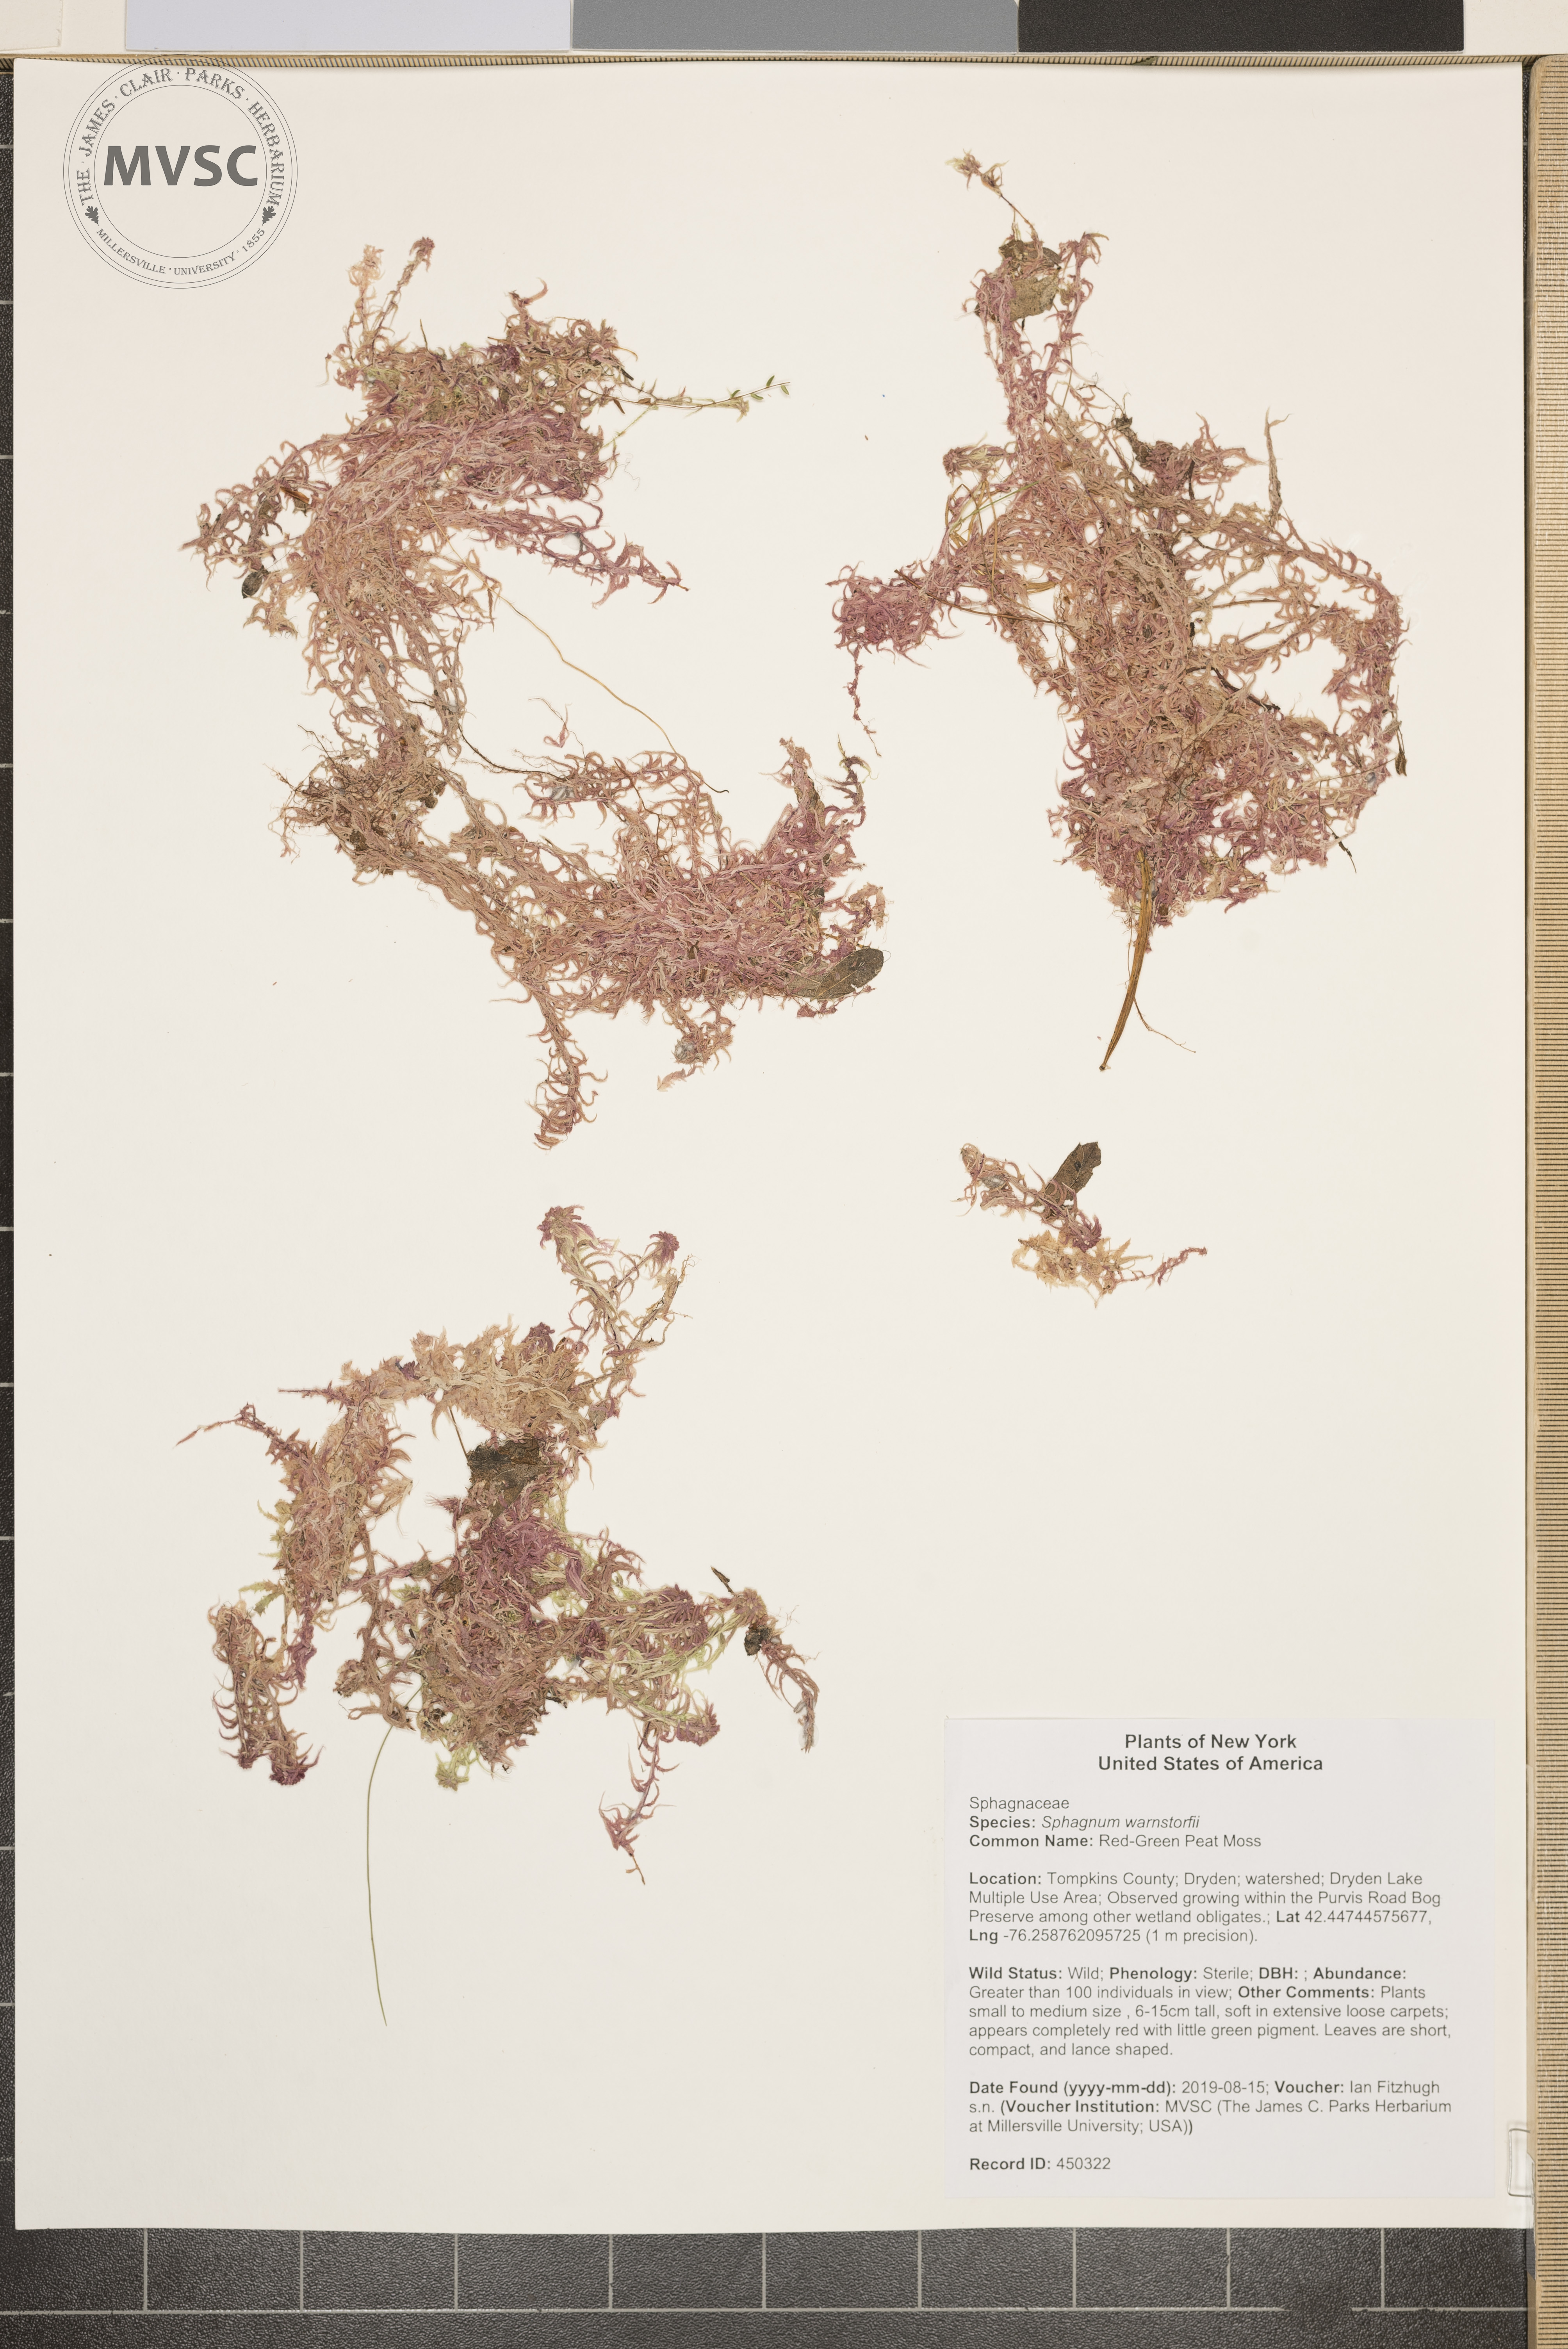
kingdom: Plantae
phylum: Bryophyta
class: Sphagnopsida
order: Sphagnales
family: Sphagnaceae
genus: Sphagnum
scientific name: Sphagnum warnstorfii
